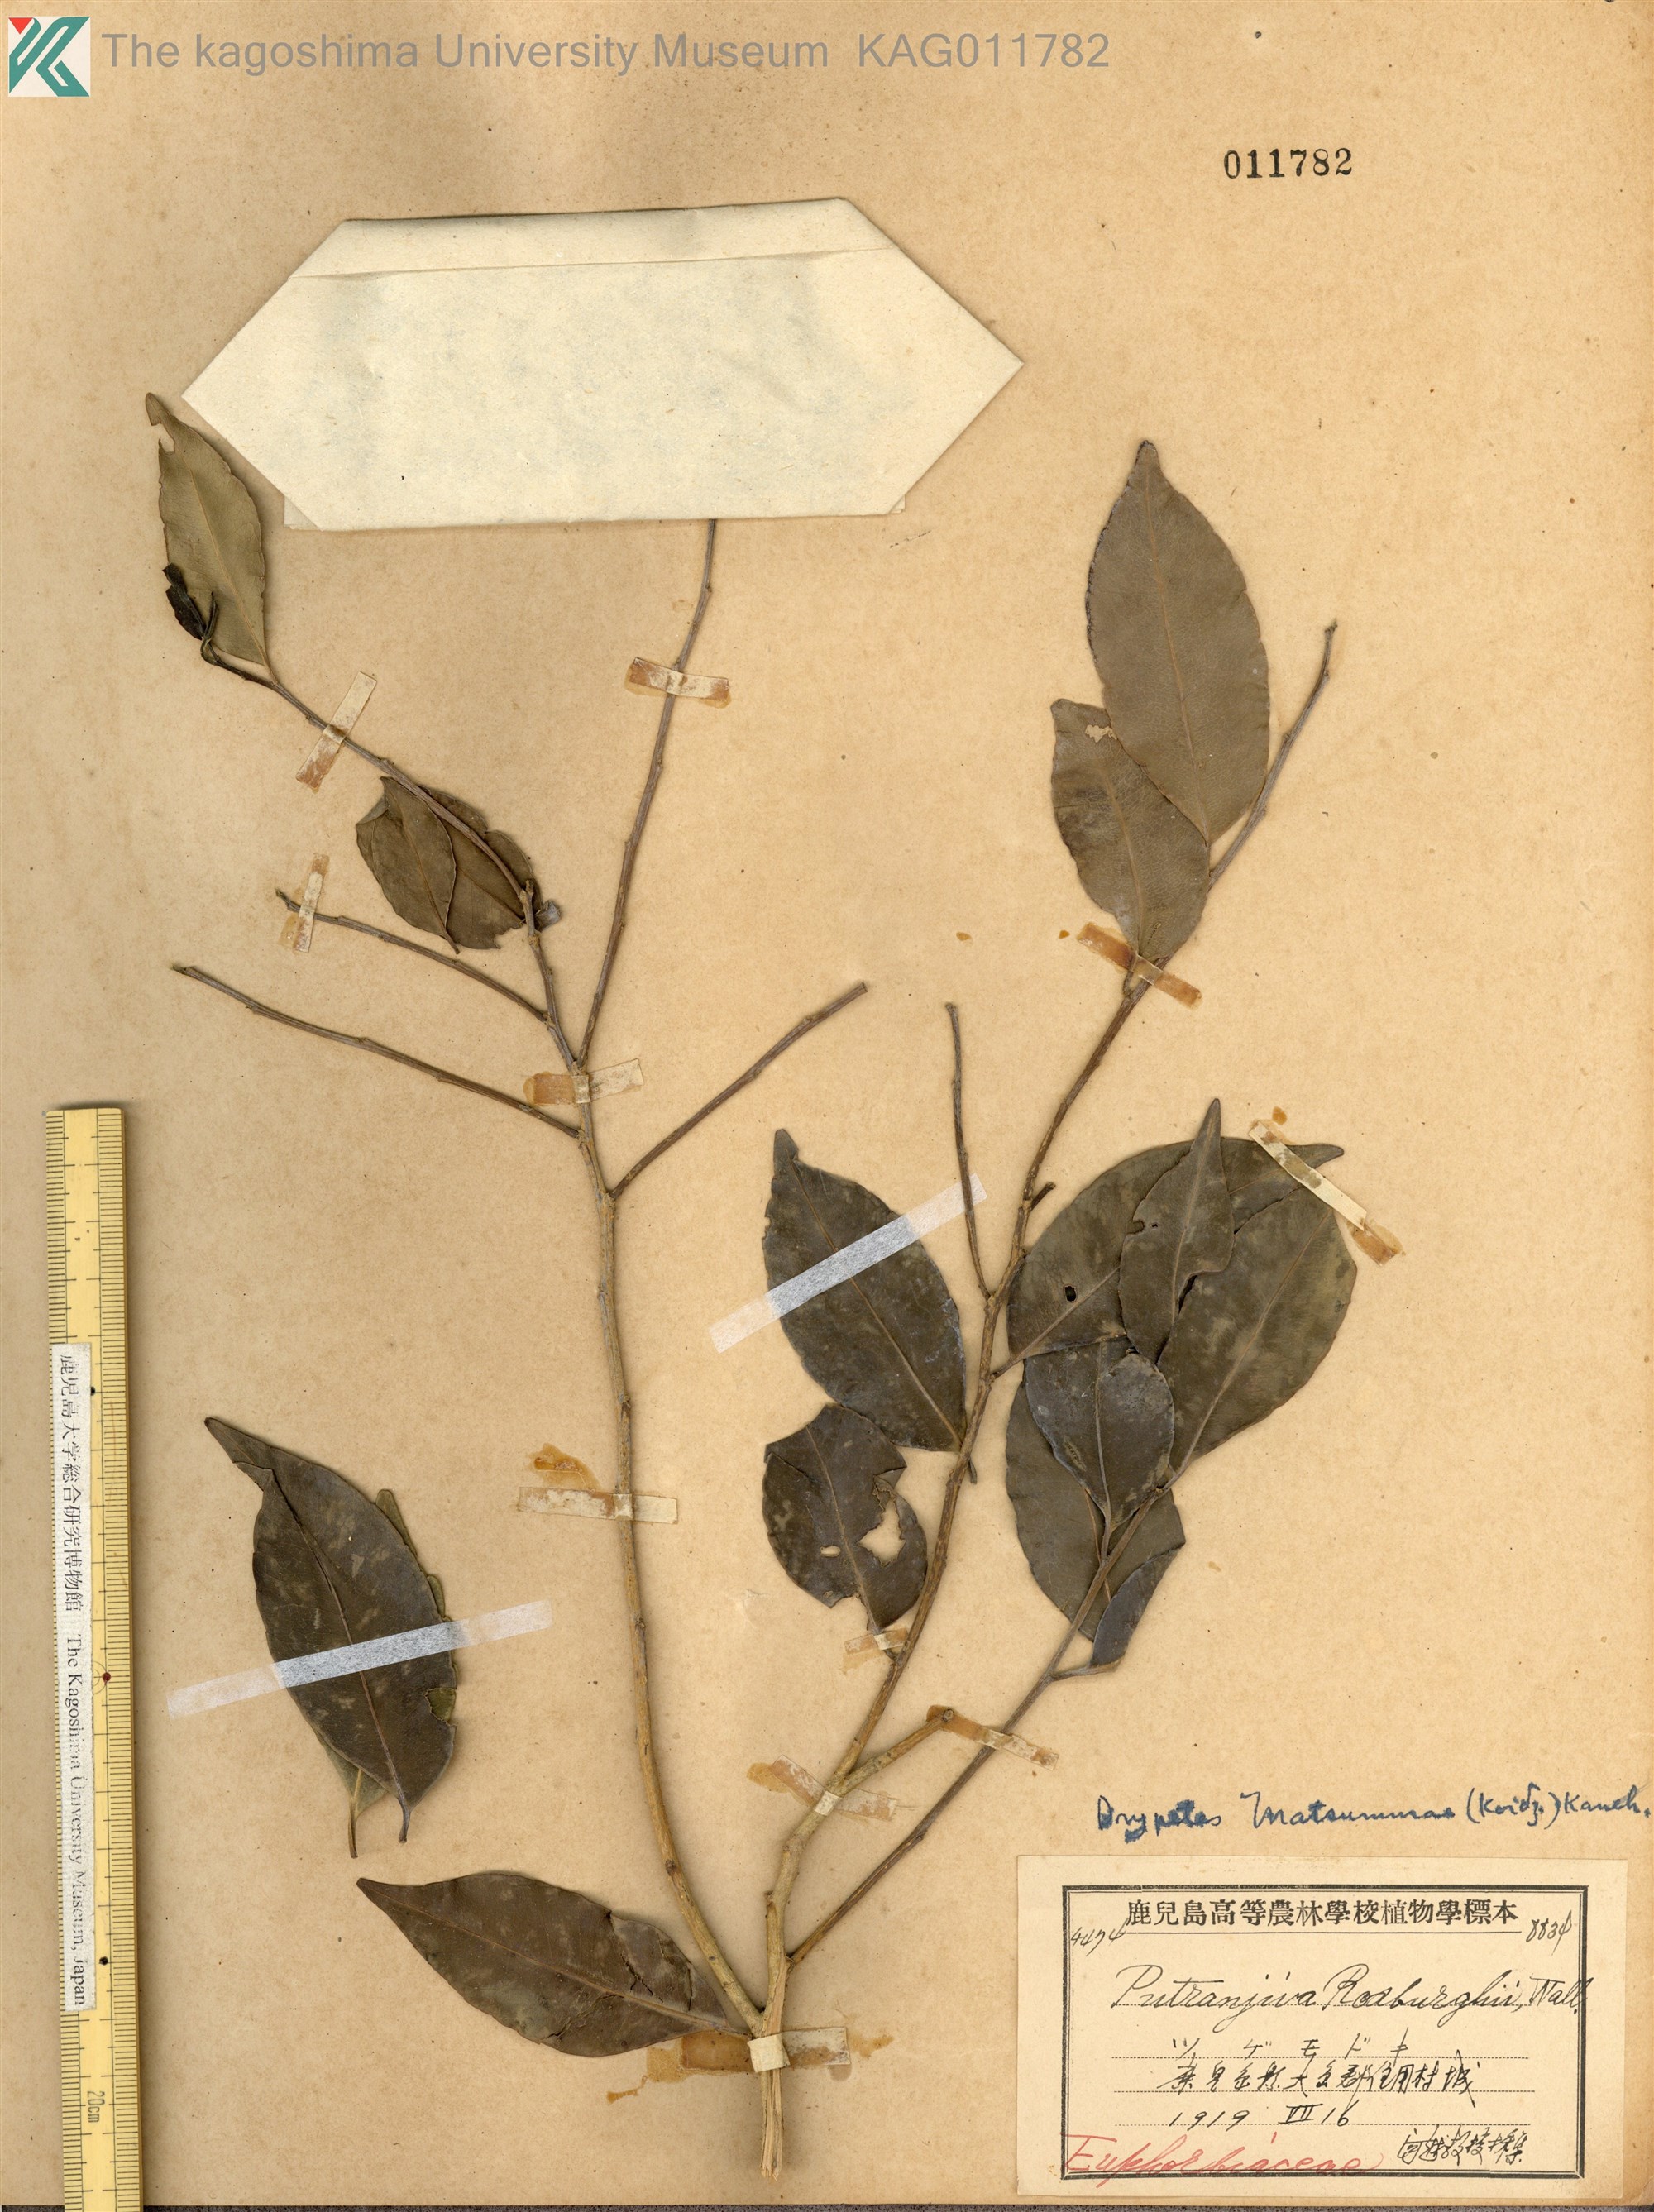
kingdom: Plantae
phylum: Tracheophyta
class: Magnoliopsida
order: Malpighiales
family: Putranjivaceae
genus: Putranjiva
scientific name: Putranjiva matsumurae
